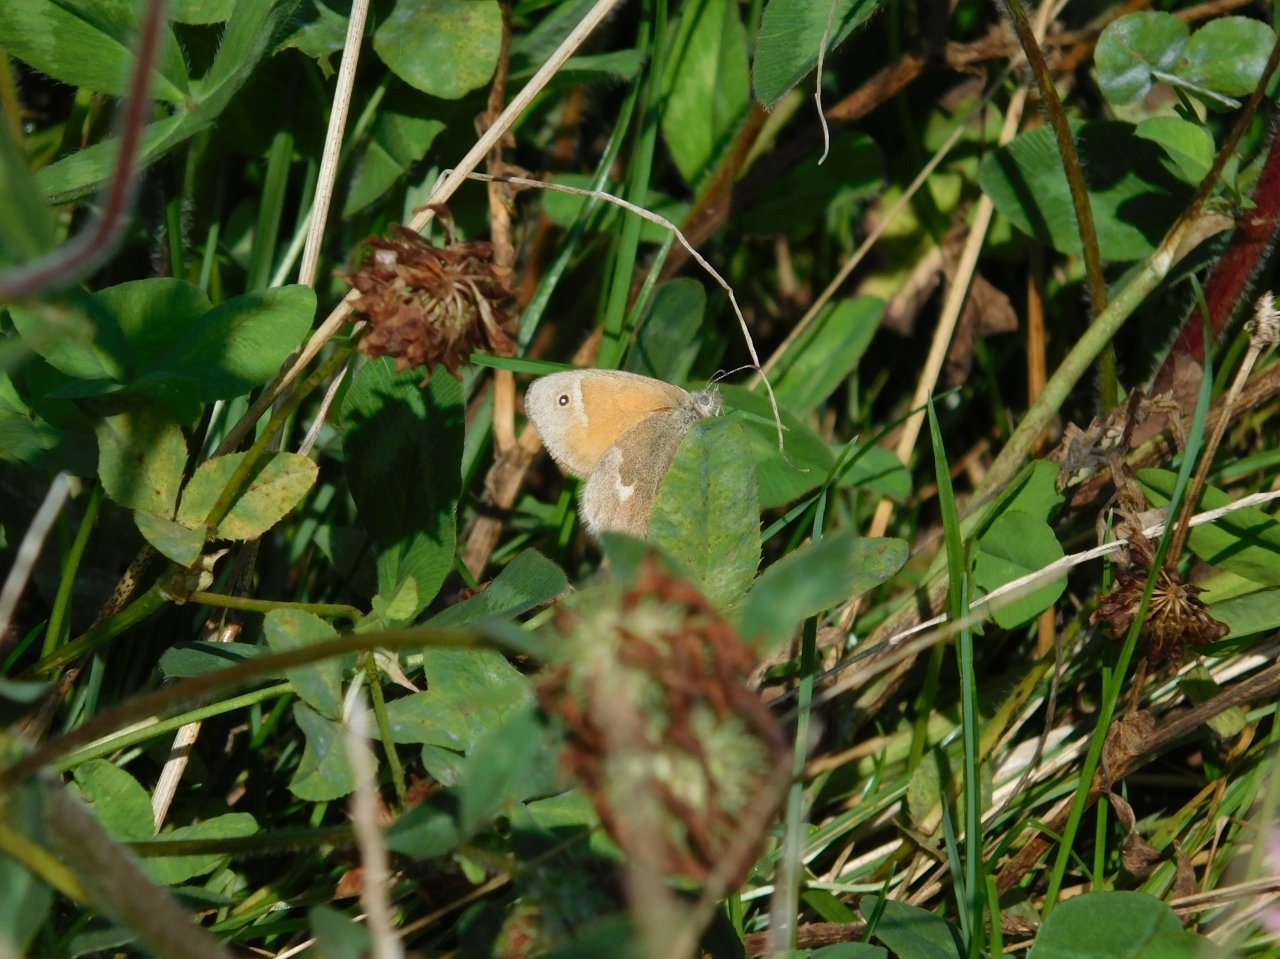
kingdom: Animalia
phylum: Arthropoda
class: Insecta
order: Lepidoptera
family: Nymphalidae
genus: Coenonympha
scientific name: Coenonympha tullia
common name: Large Heath
